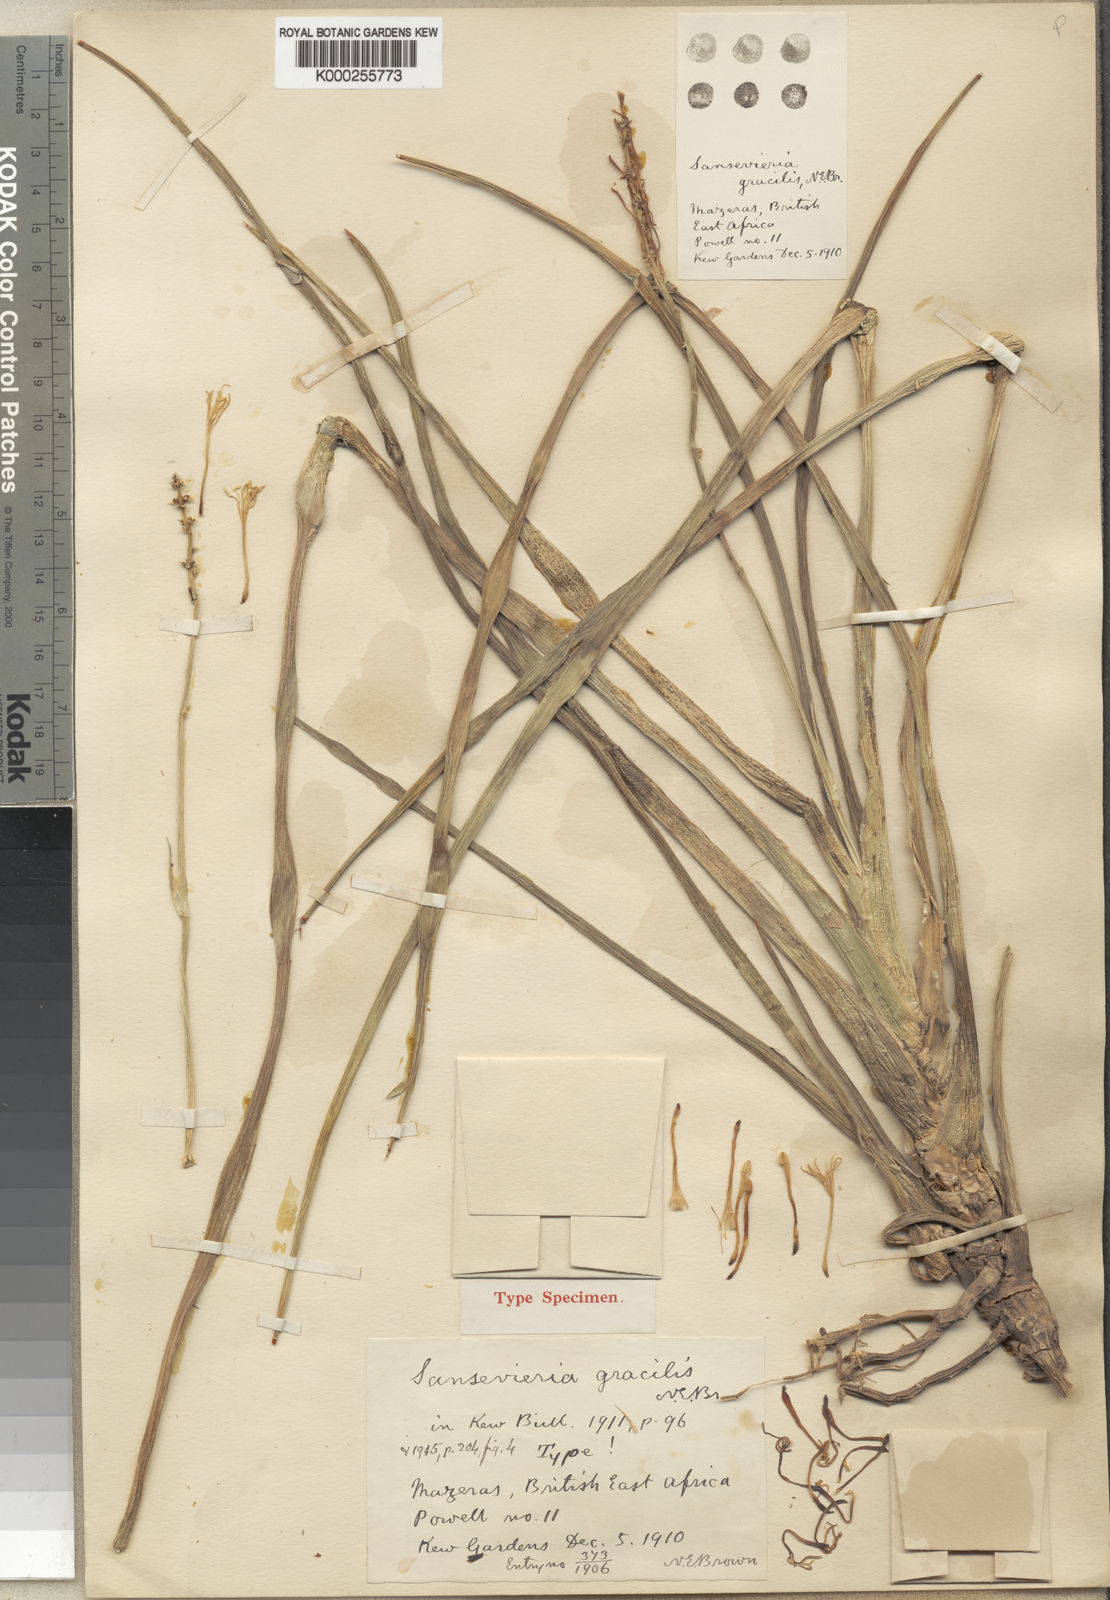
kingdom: Plantae
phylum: Tracheophyta
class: Liliopsida
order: Asparagales
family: Asparagaceae
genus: Dracaena
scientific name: Dracaena serpenta
